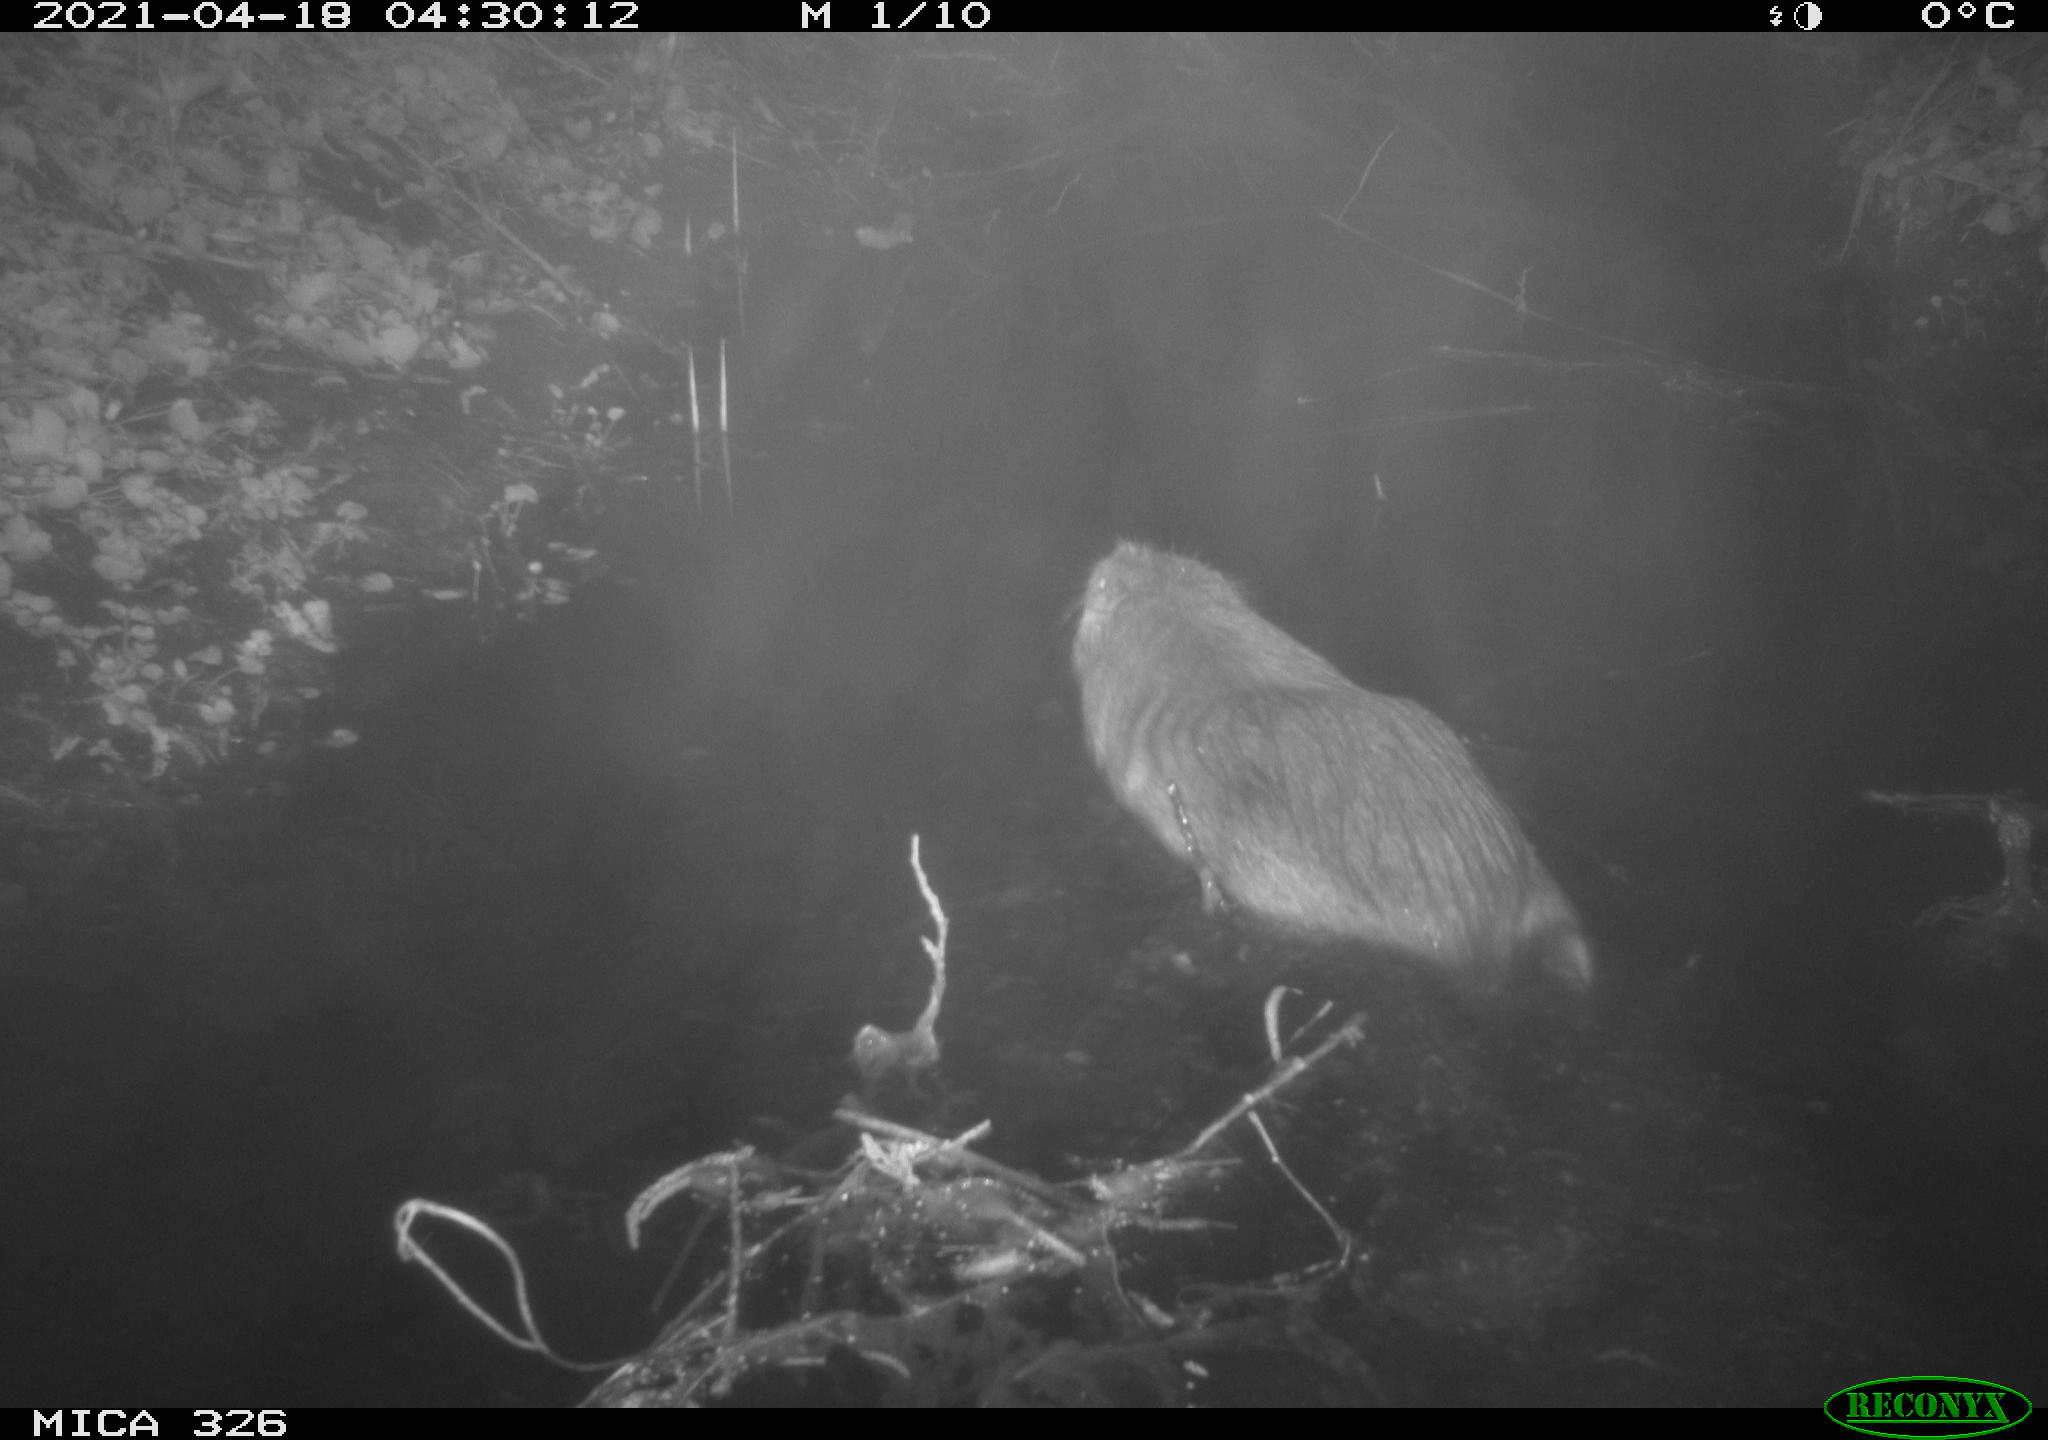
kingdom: Animalia
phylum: Chordata
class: Mammalia
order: Rodentia
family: Myocastoridae
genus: Myocastor
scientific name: Myocastor coypus
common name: Coypu
